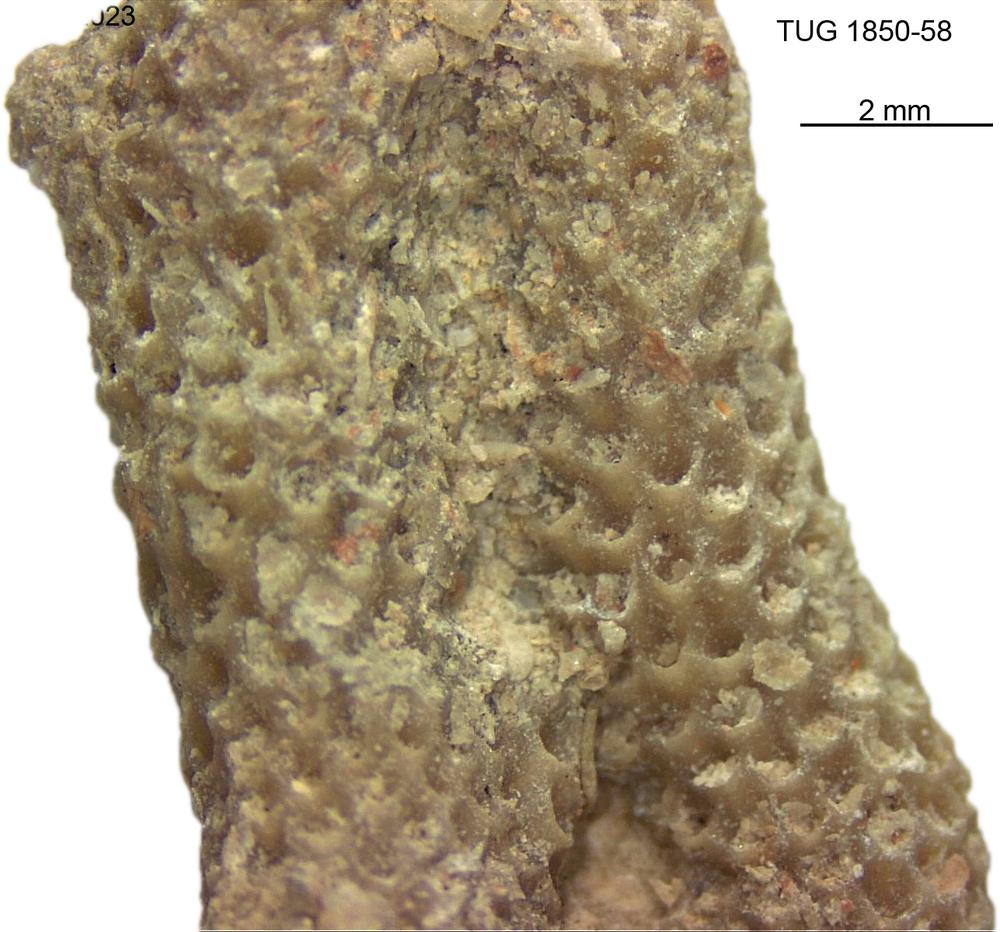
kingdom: Animalia
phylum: Cnidaria
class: Anthozoa
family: Coenitidae
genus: Coenites
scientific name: Coenites juniperinus
